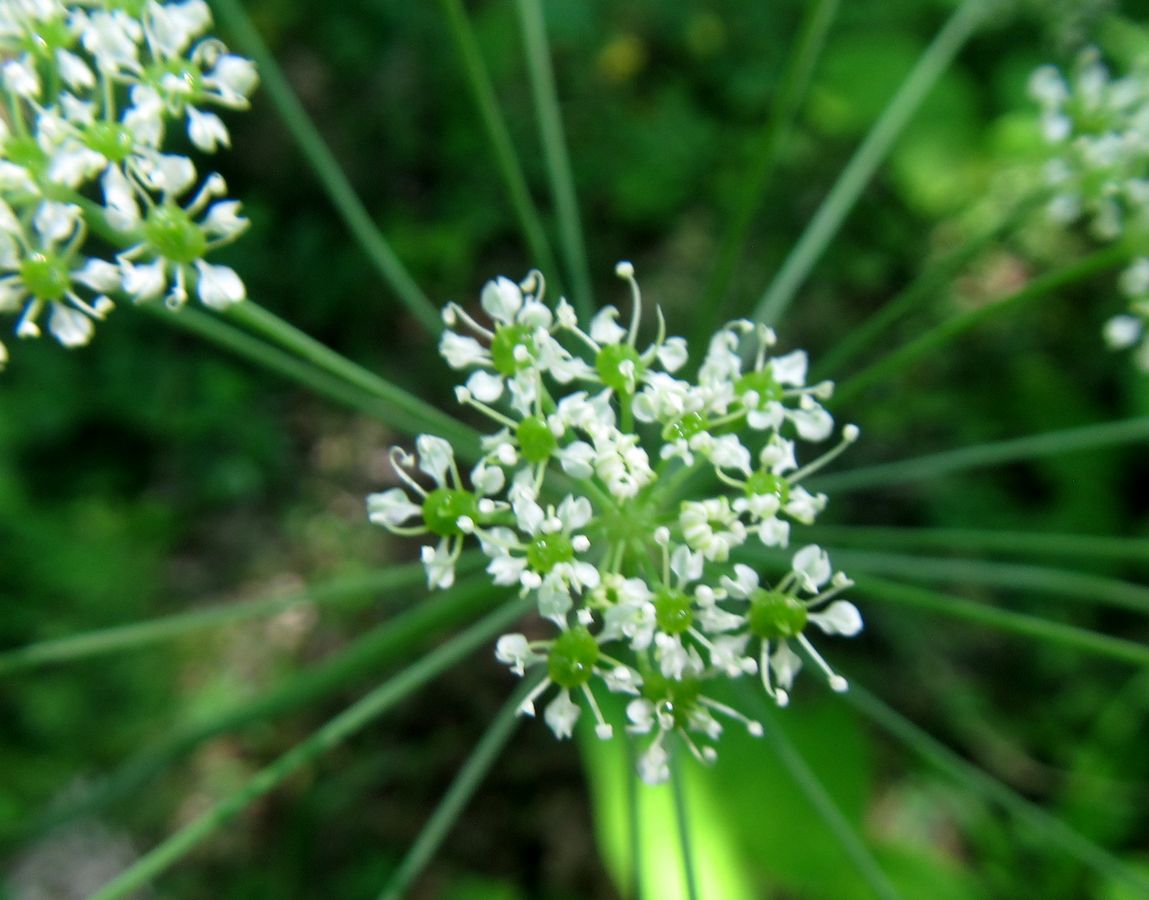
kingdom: Plantae
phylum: Tracheophyta
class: Magnoliopsida
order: Apiales
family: Apiaceae
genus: Laser
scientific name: Laser trilobum
